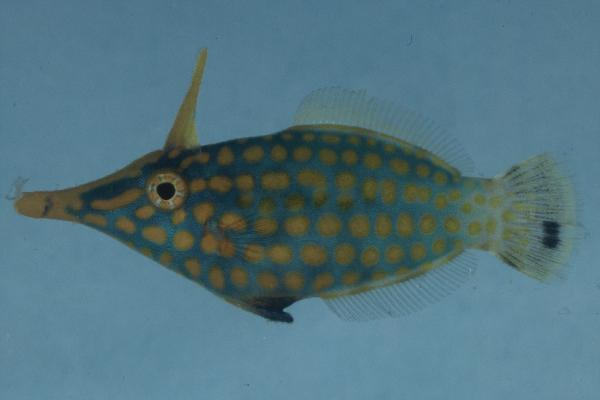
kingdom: Animalia
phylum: Chordata
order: Tetraodontiformes
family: Monacanthidae
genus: Oxymonacanthus
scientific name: Oxymonacanthus longirostris
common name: Beaked leatherjacket
